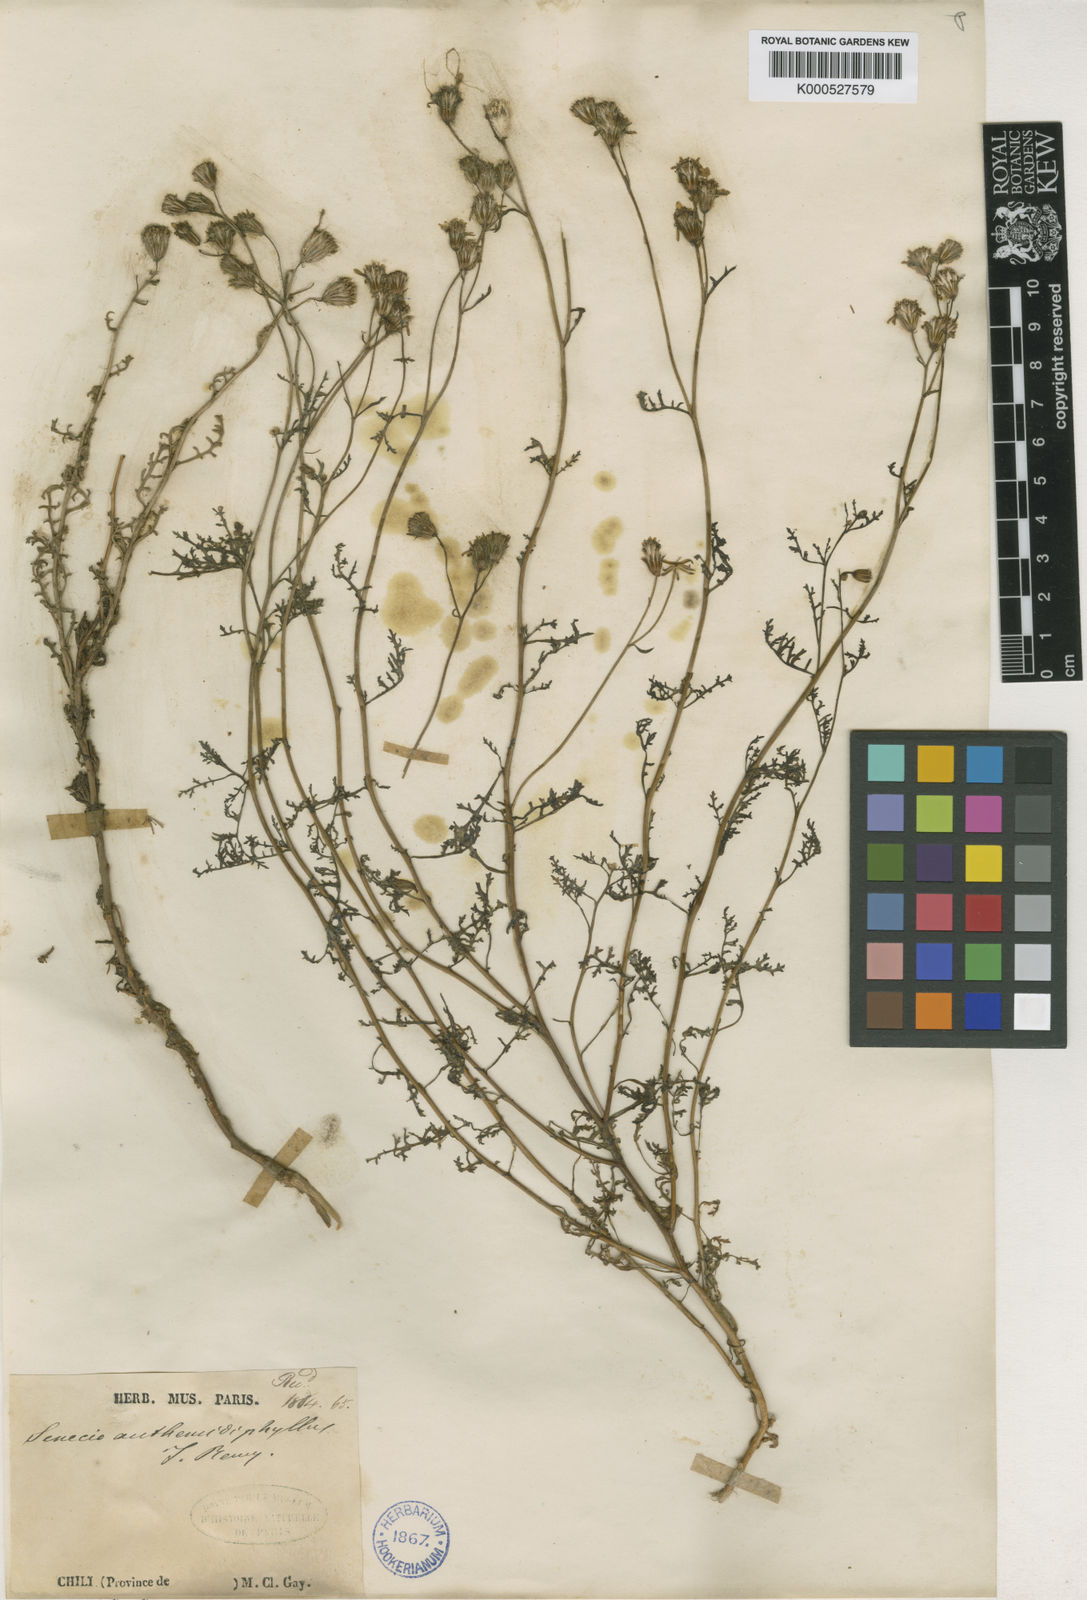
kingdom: Plantae
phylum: Tracheophyta
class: Magnoliopsida
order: Asterales
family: Asteraceae
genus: Senecio
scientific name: Senecio anthemidiphyllus
